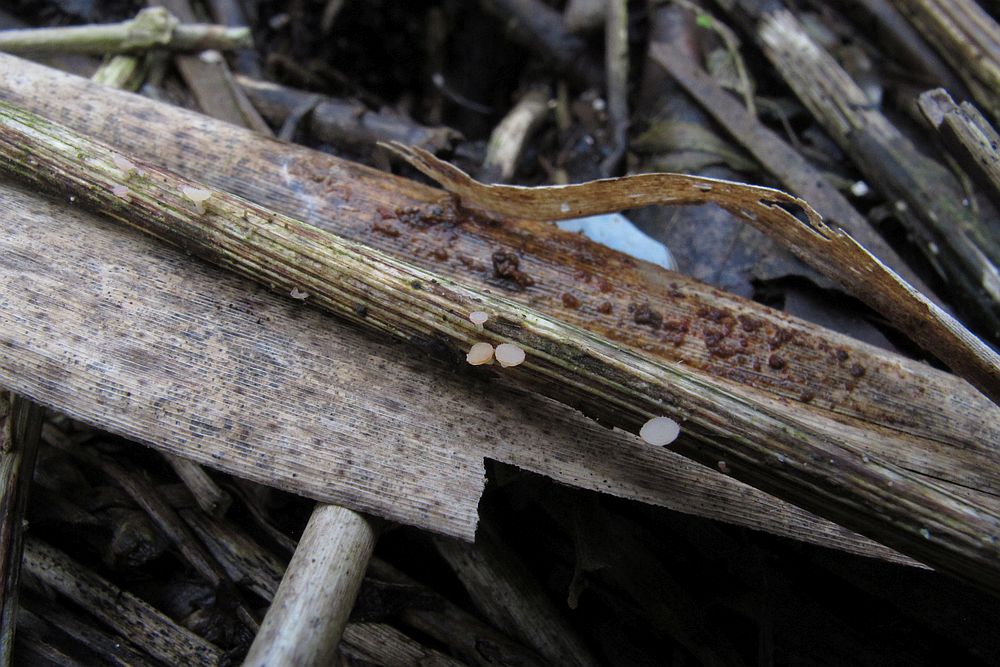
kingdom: Fungi
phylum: Ascomycota
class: Leotiomycetes
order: Helotiales
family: Helotiaceae
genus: Cyathicula
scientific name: Cyathicula coronata
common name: krone-stilkskive
